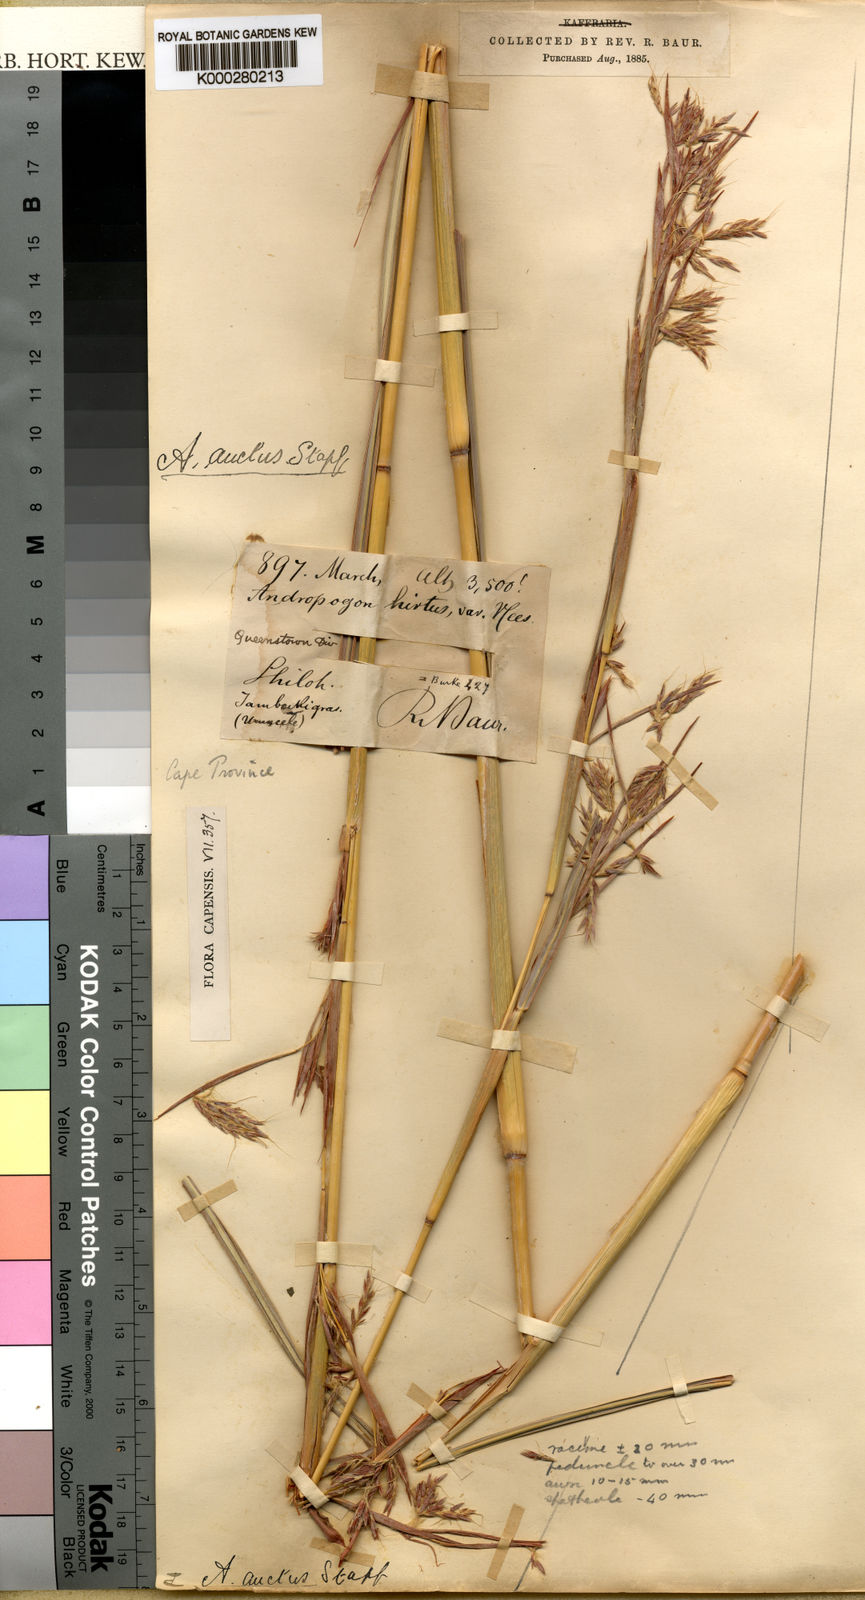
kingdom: Plantae
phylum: Tracheophyta
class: Liliopsida
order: Poales
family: Poaceae
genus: Hyparrhenia
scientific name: Hyparrhenia dregeana
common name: Silky thatching grass
